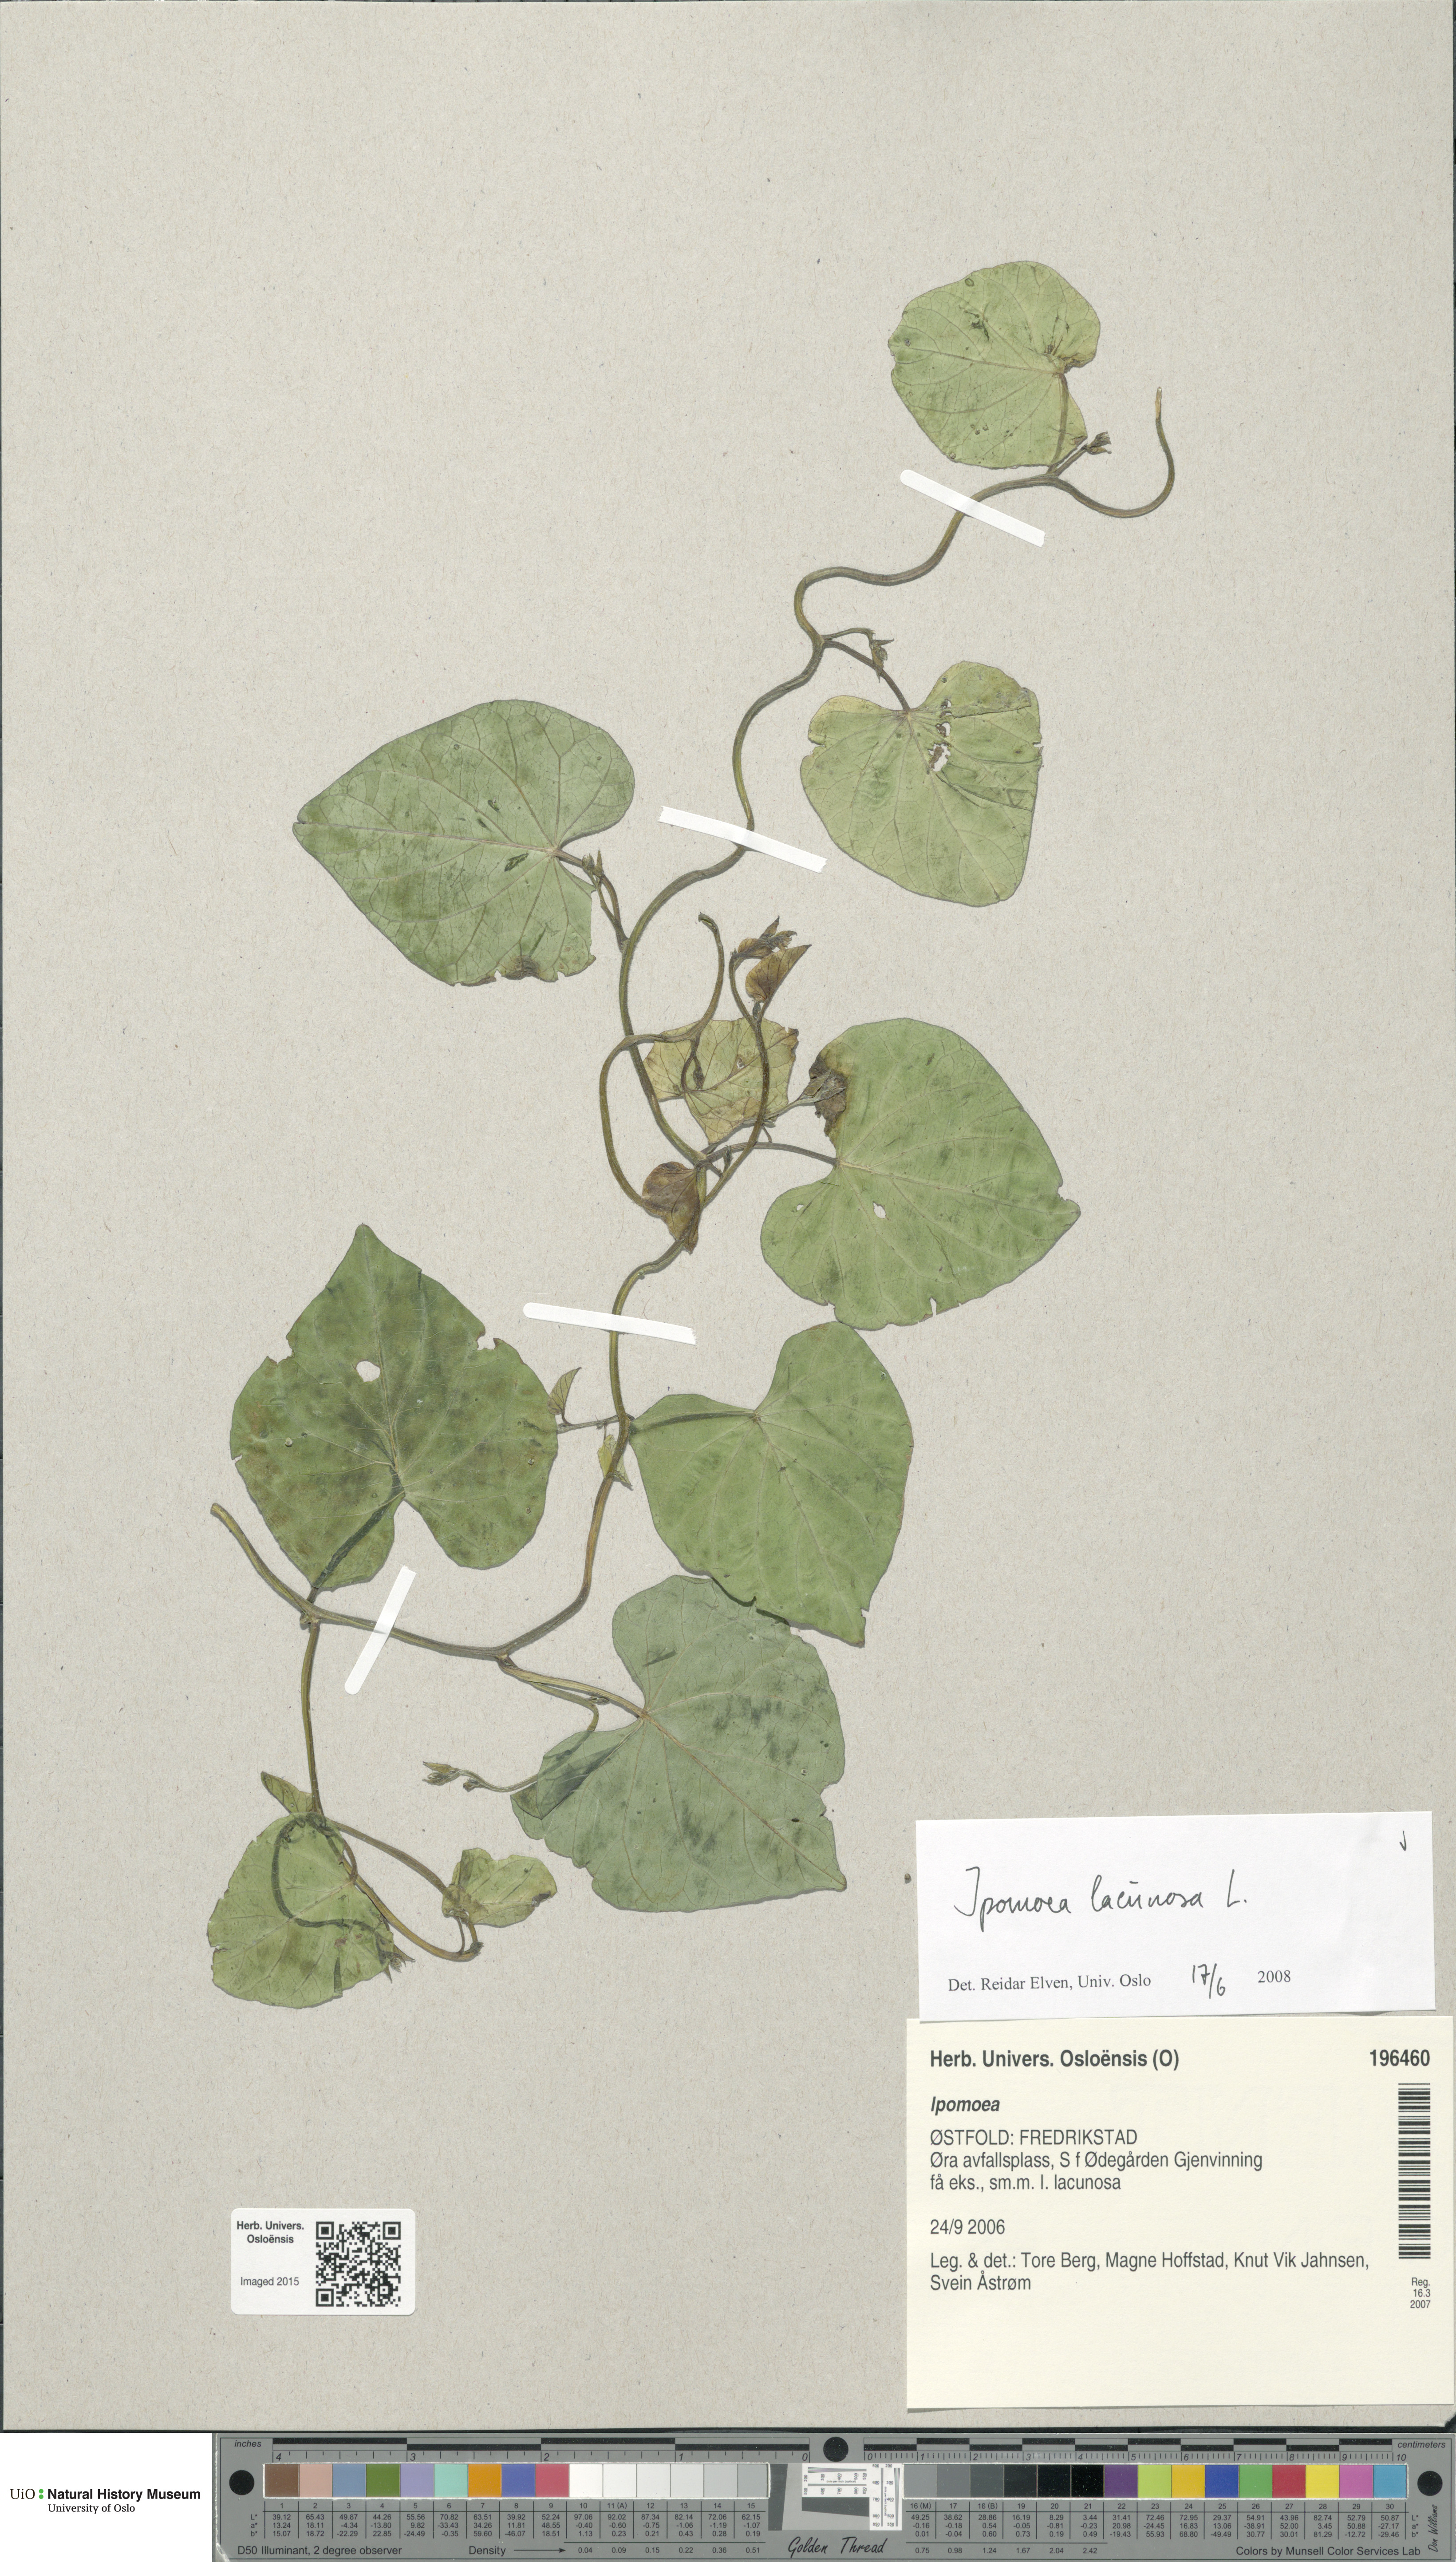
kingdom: Plantae
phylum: Tracheophyta
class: Magnoliopsida
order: Solanales
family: Convolvulaceae
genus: Ipomoea
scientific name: Ipomoea lacunosa
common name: White morning-glory
